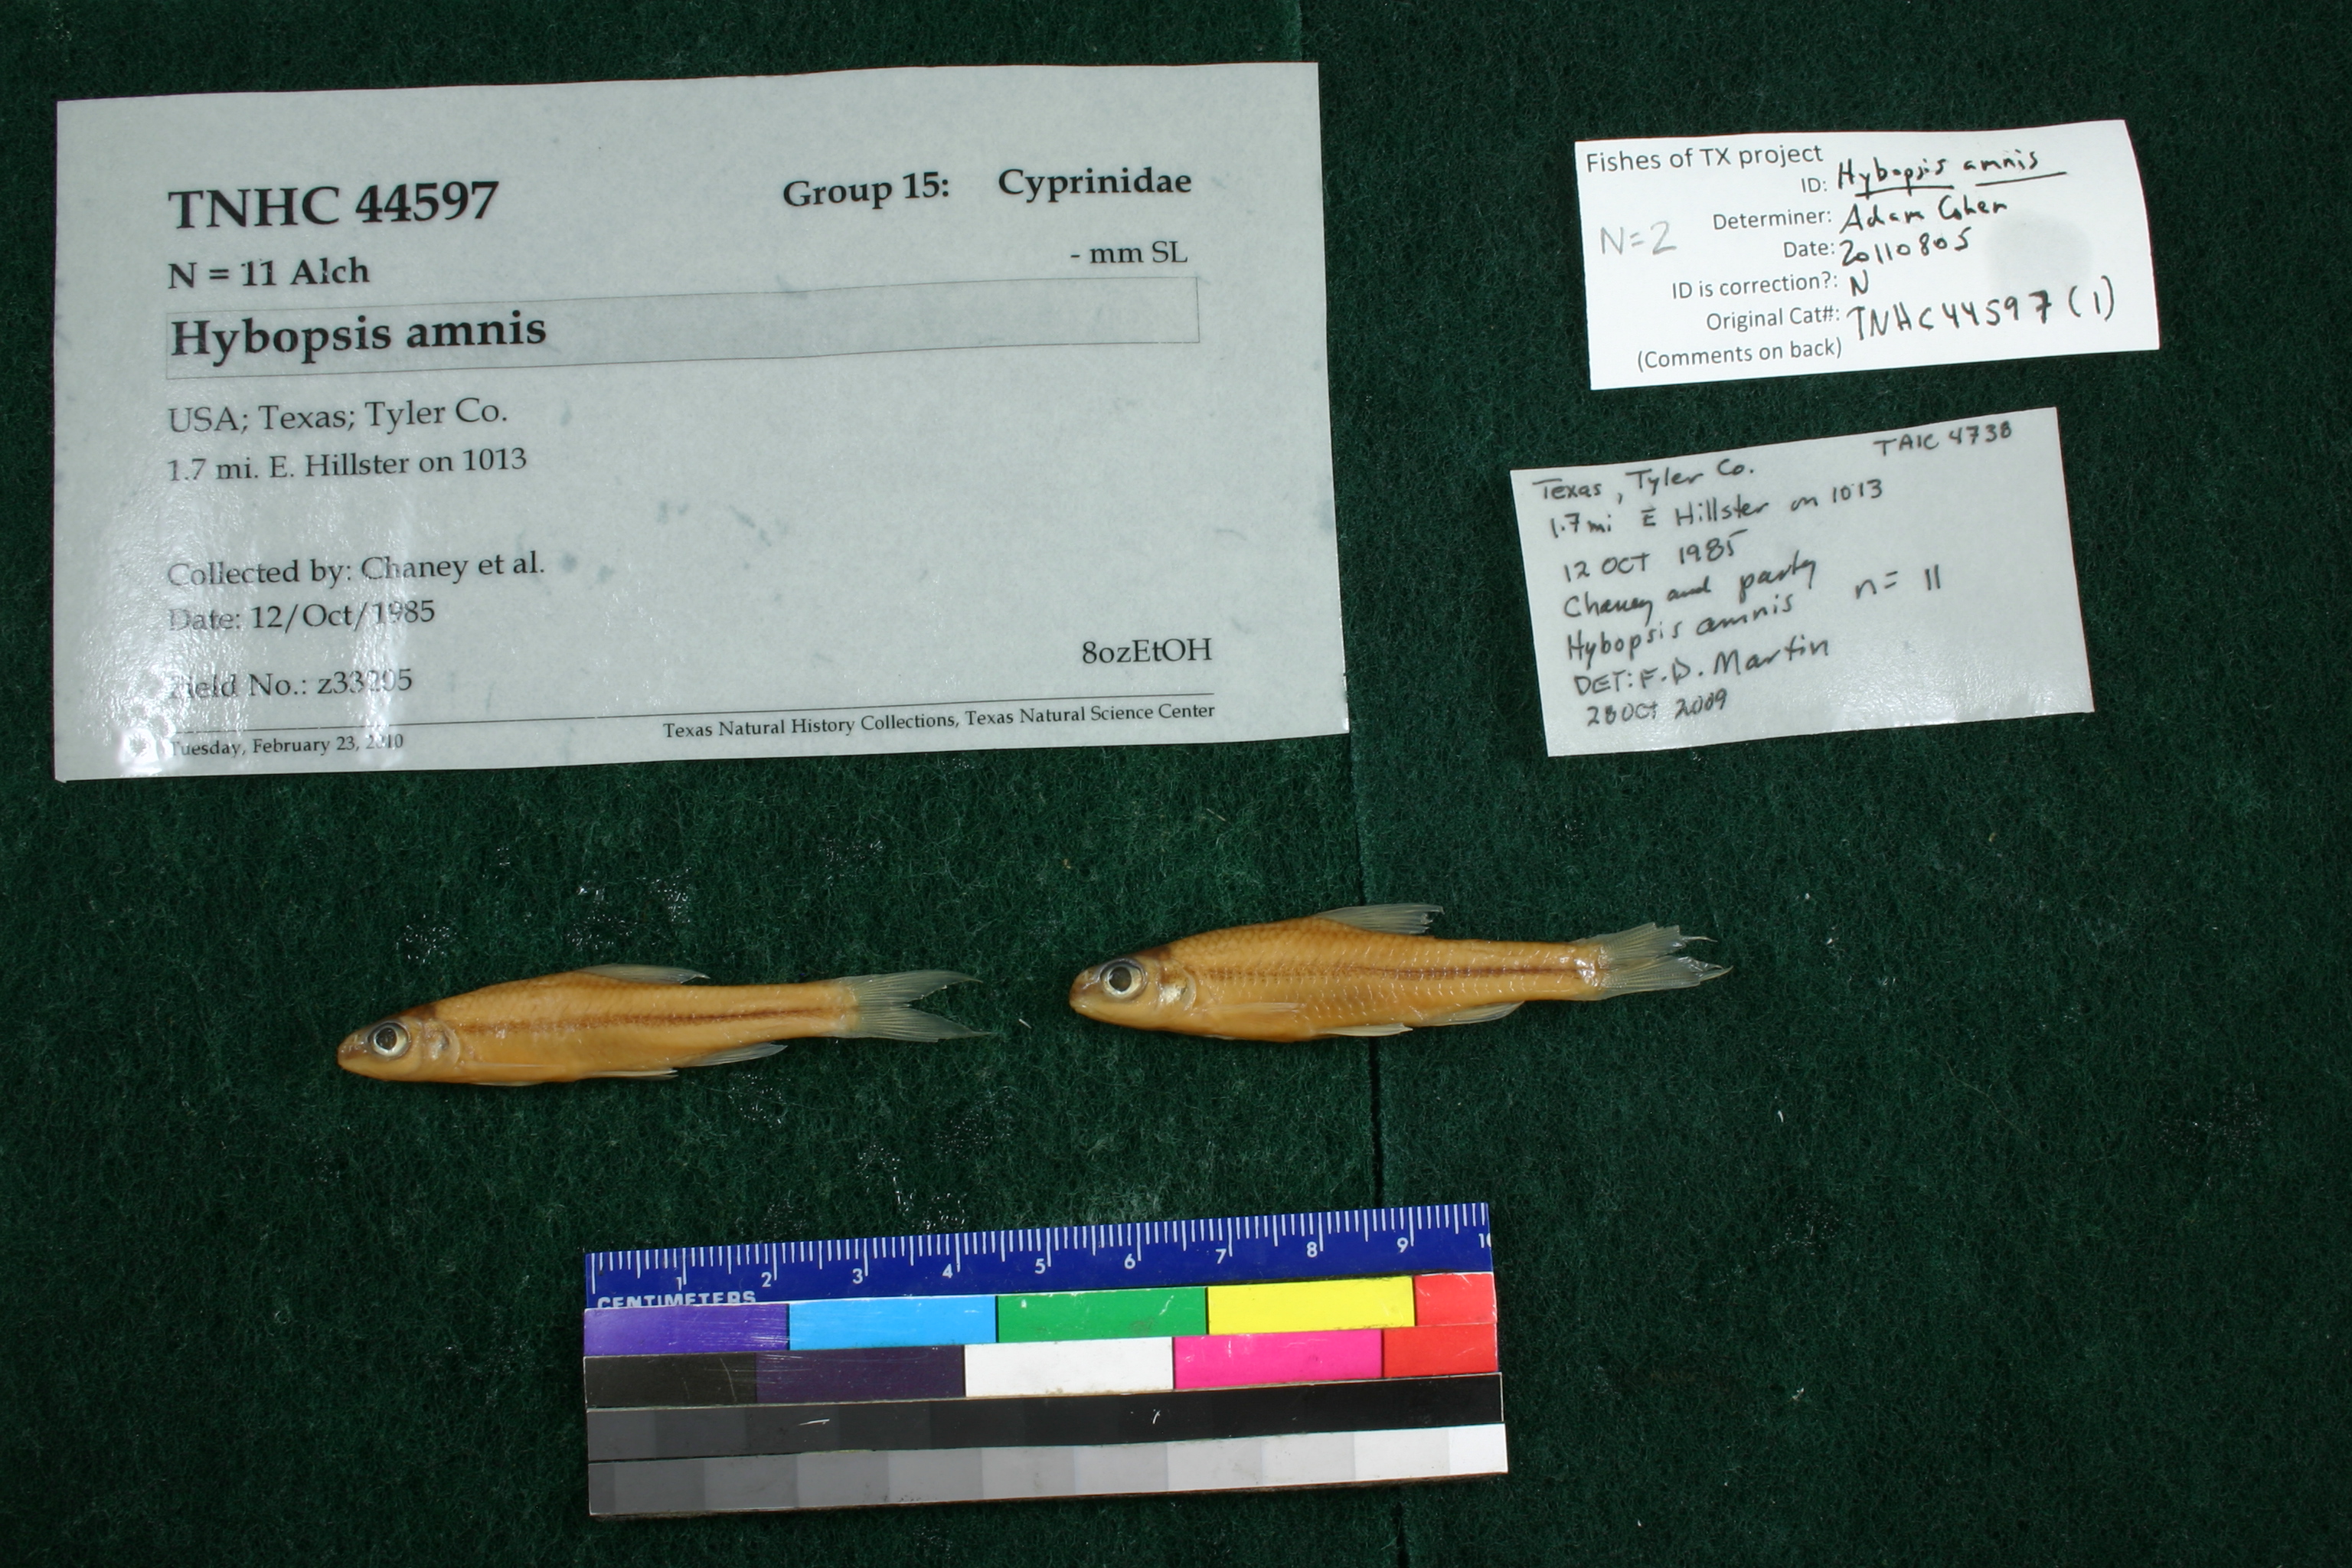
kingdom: Animalia
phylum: Chordata
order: Cypriniformes
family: Cyprinidae
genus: Hybopsis
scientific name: Hybopsis amnis
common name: Pallid shiner
